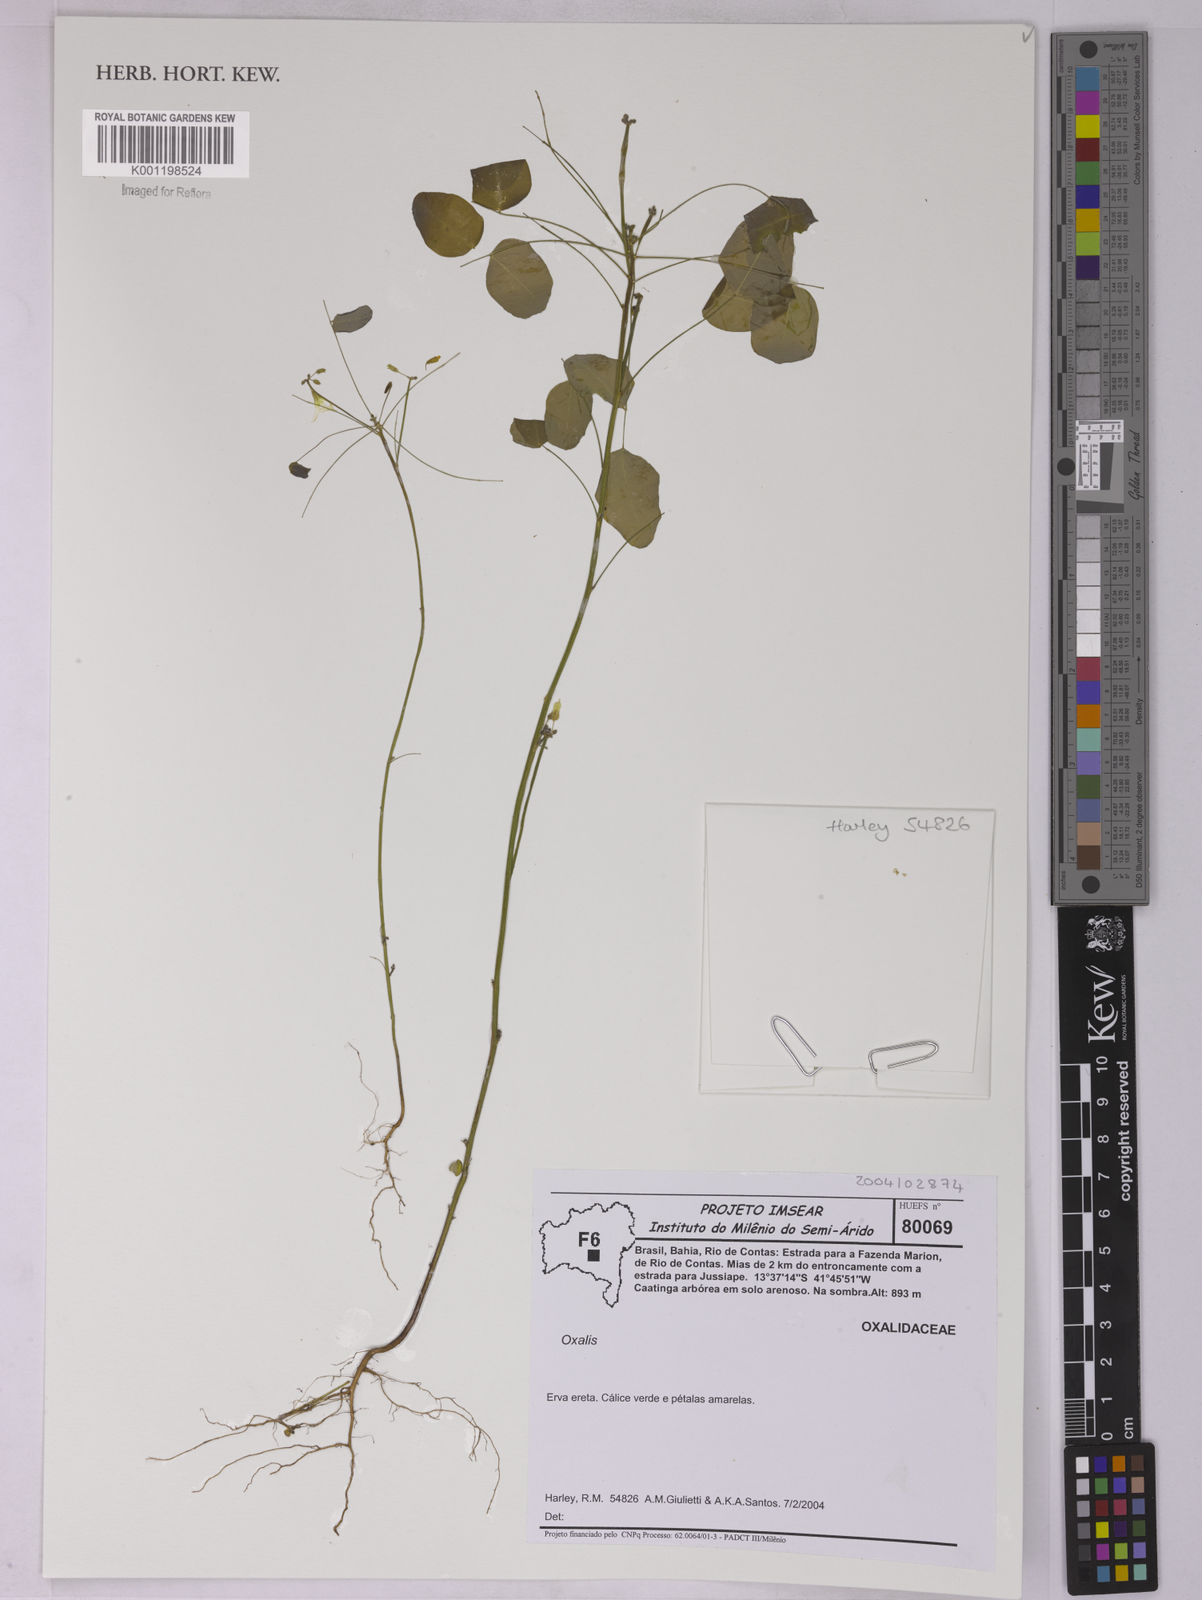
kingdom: Plantae
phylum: Tracheophyta
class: Magnoliopsida
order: Oxalidales
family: Oxalidaceae
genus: Oxalis
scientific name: Oxalis
